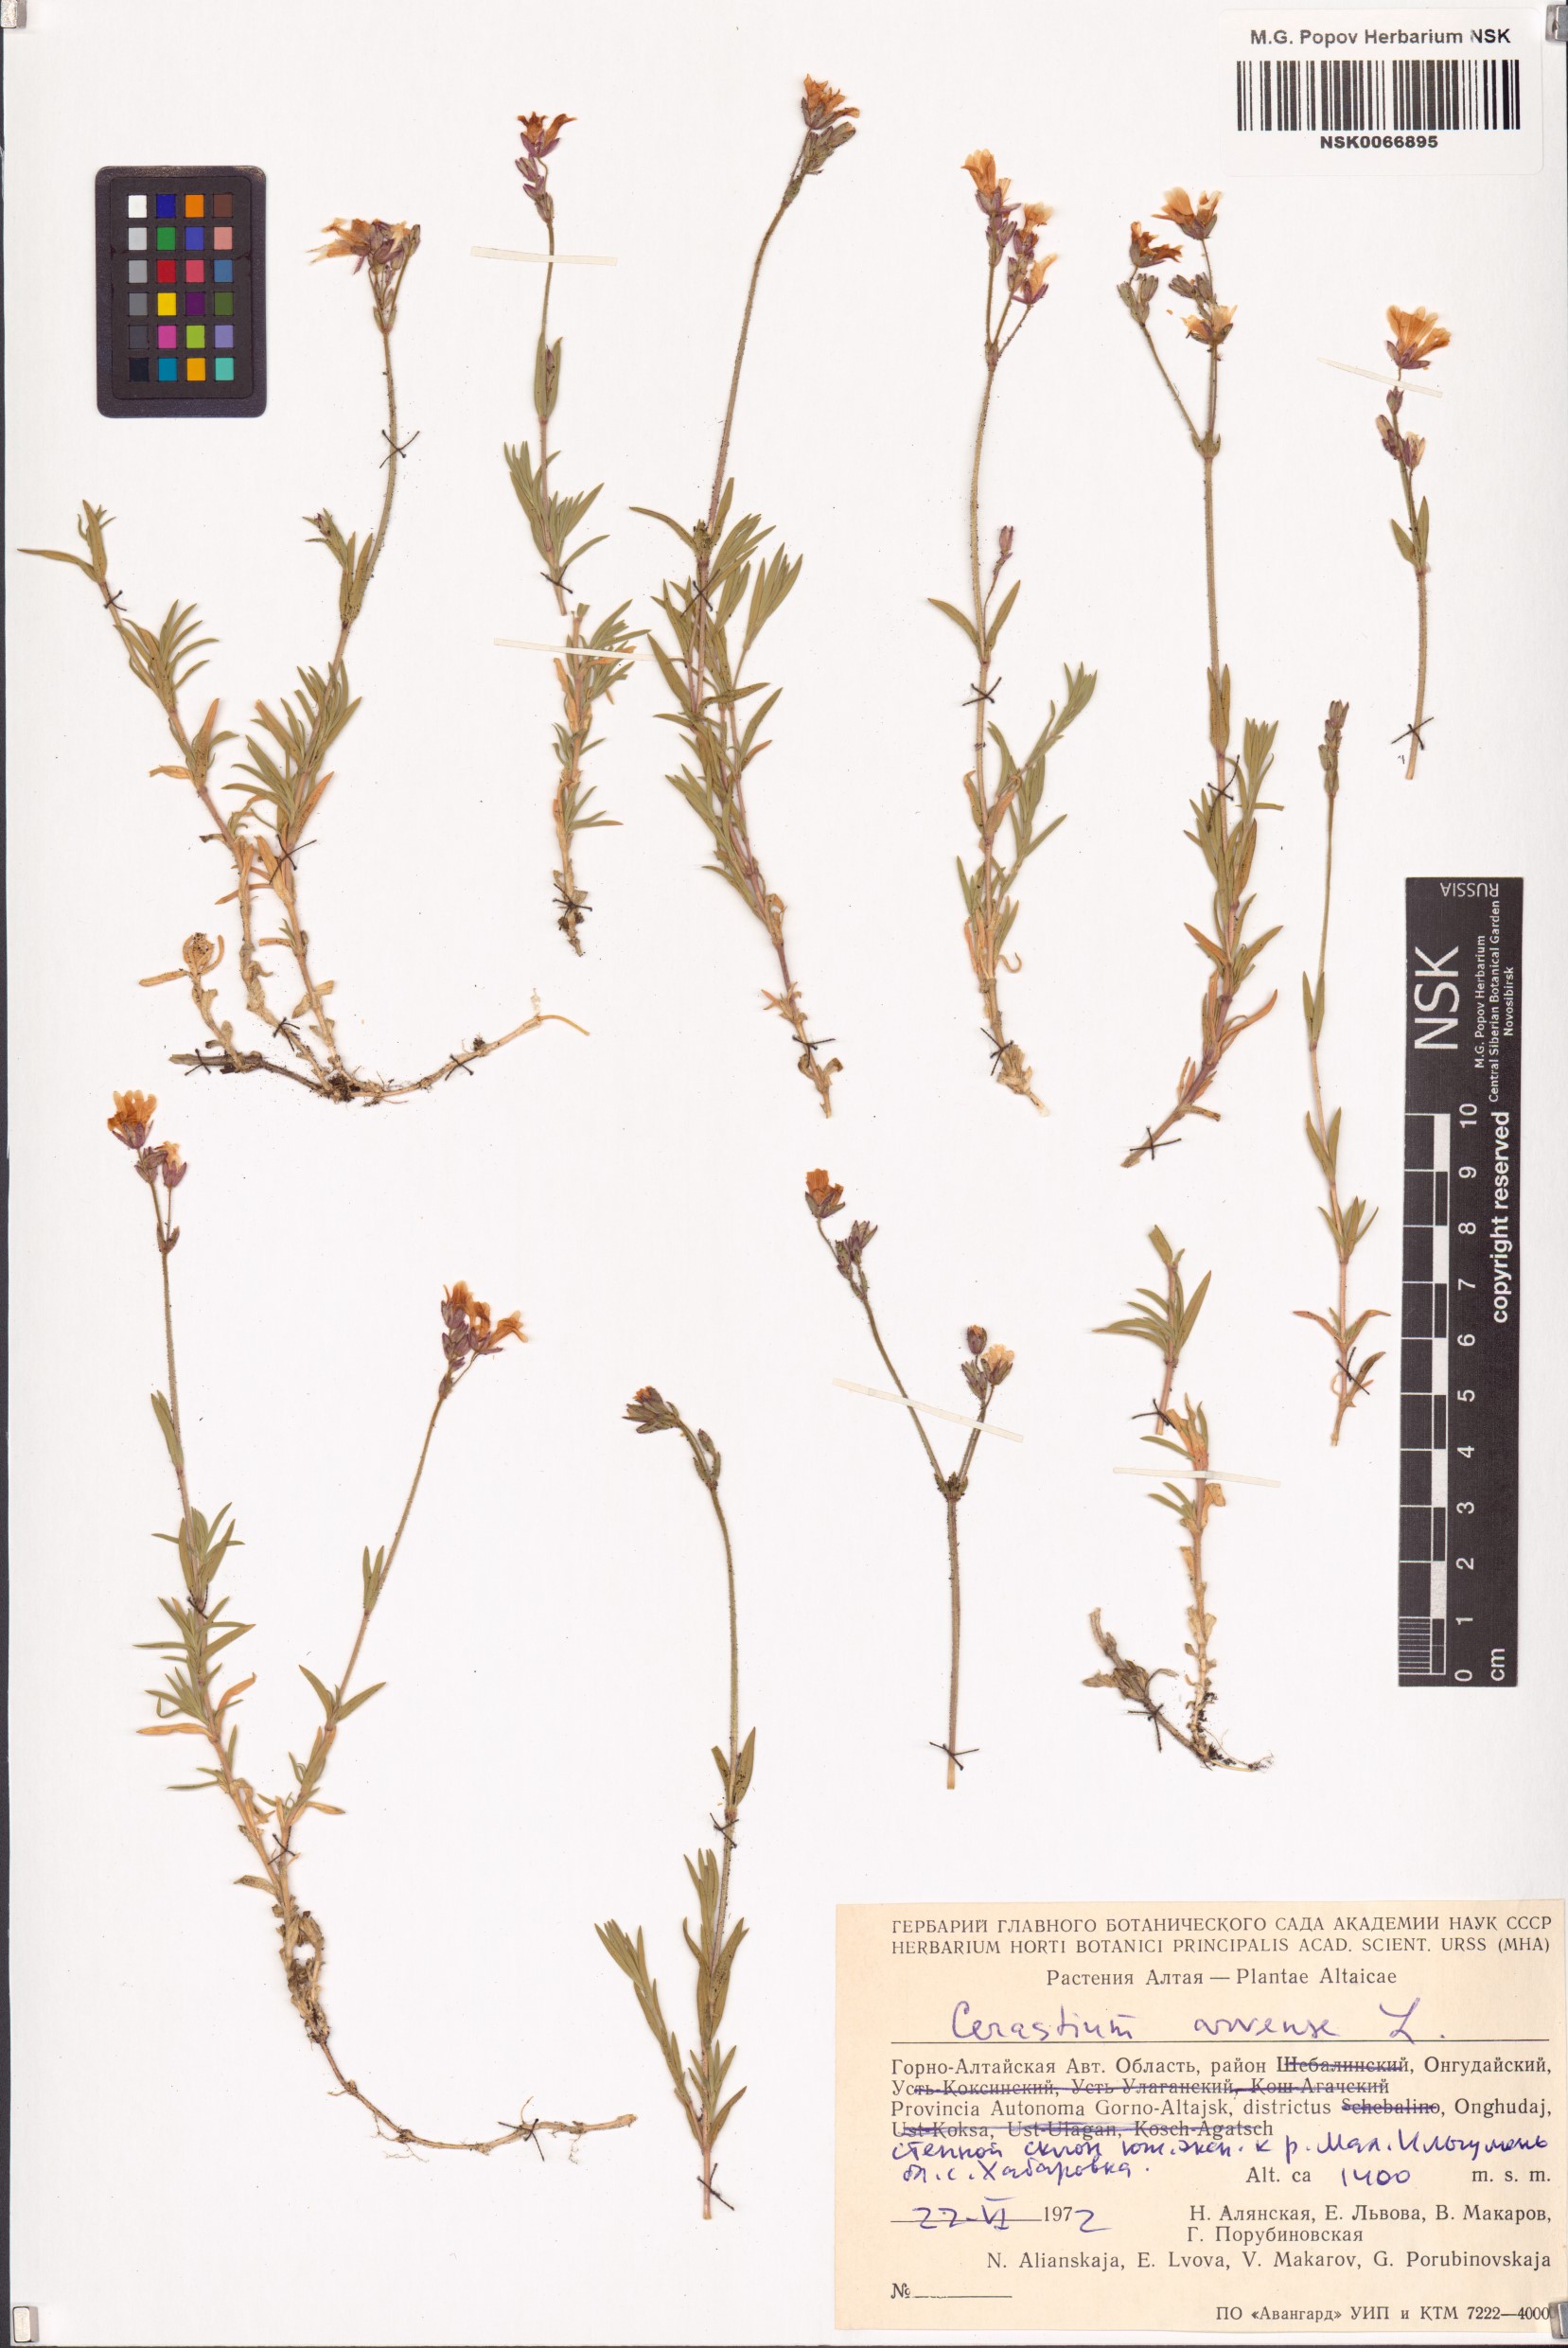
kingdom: Plantae
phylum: Tracheophyta
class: Magnoliopsida
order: Caryophyllales
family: Caryophyllaceae
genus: Cerastium
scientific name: Cerastium arvense
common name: Field mouse-ear
